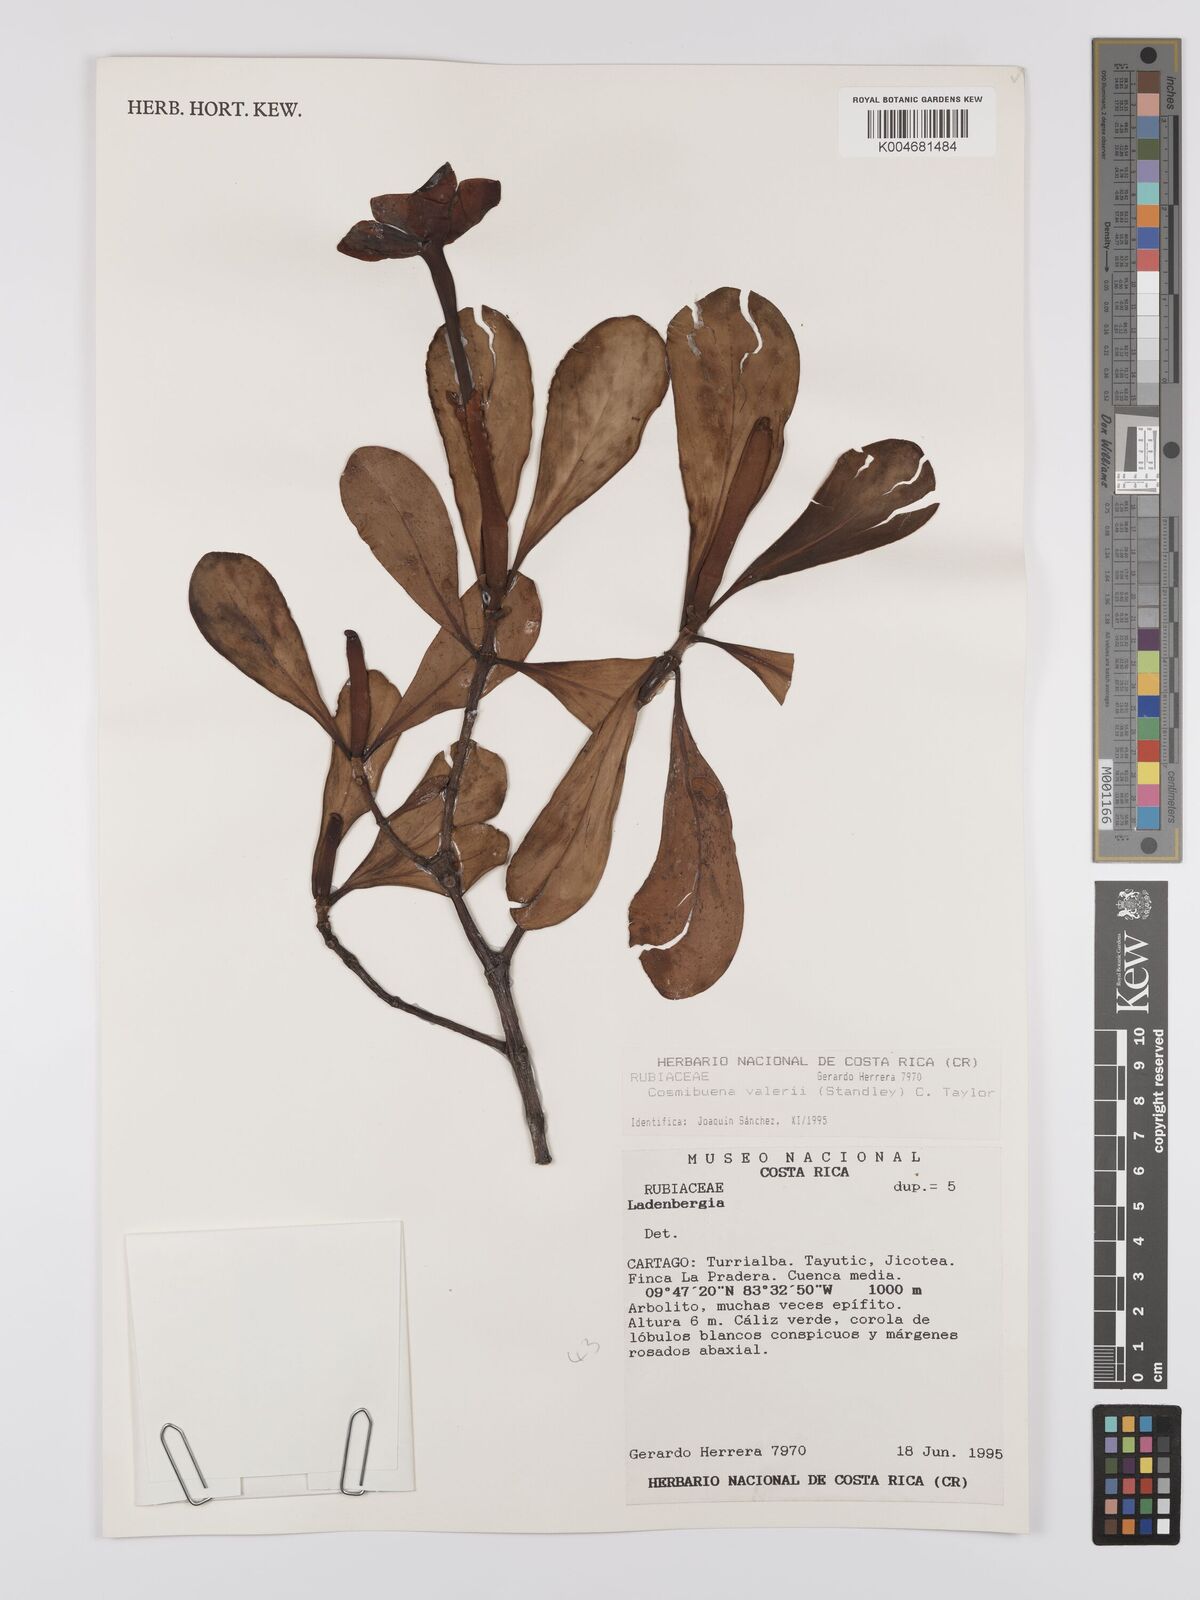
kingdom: Plantae
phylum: Tracheophyta
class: Magnoliopsida
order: Gentianales
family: Rubiaceae
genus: Cosmibuena
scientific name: Cosmibuena valerii
